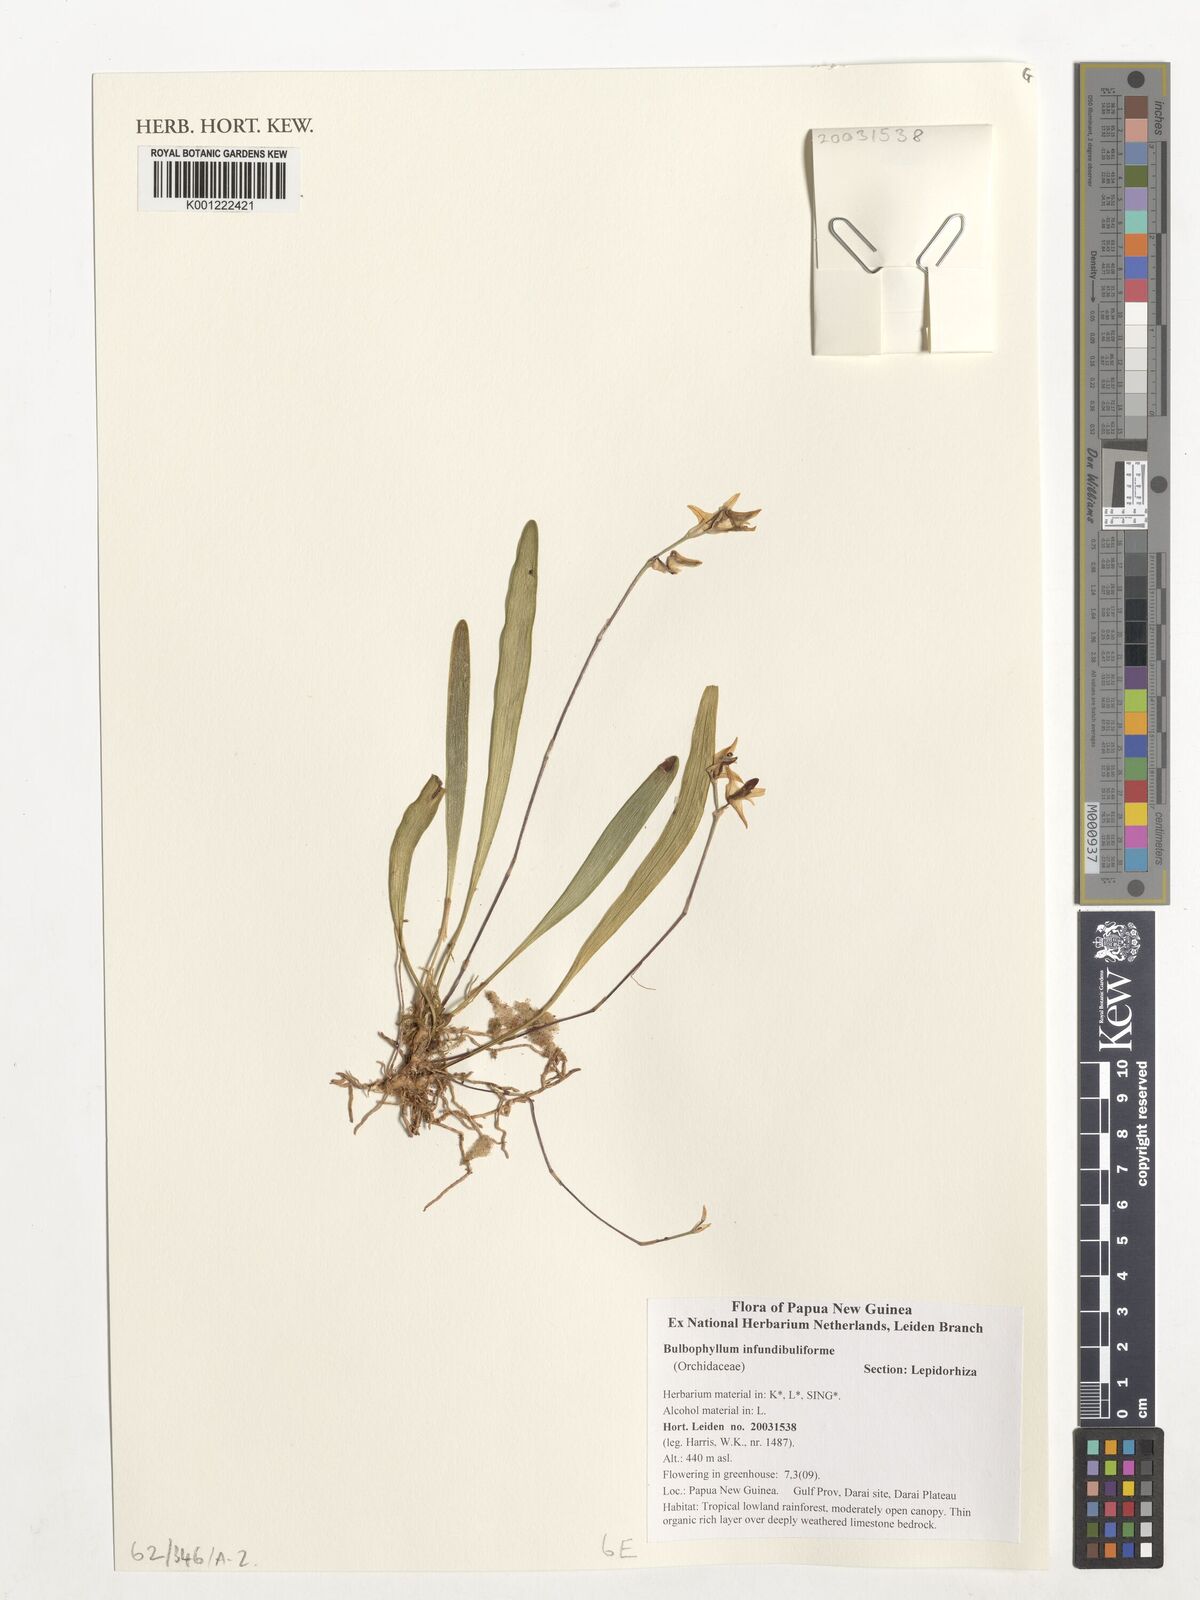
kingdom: Plantae
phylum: Tracheophyta
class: Liliopsida
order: Asparagales
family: Orchidaceae
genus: Bulbophyllum
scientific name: Bulbophyllum infundibuliforme
